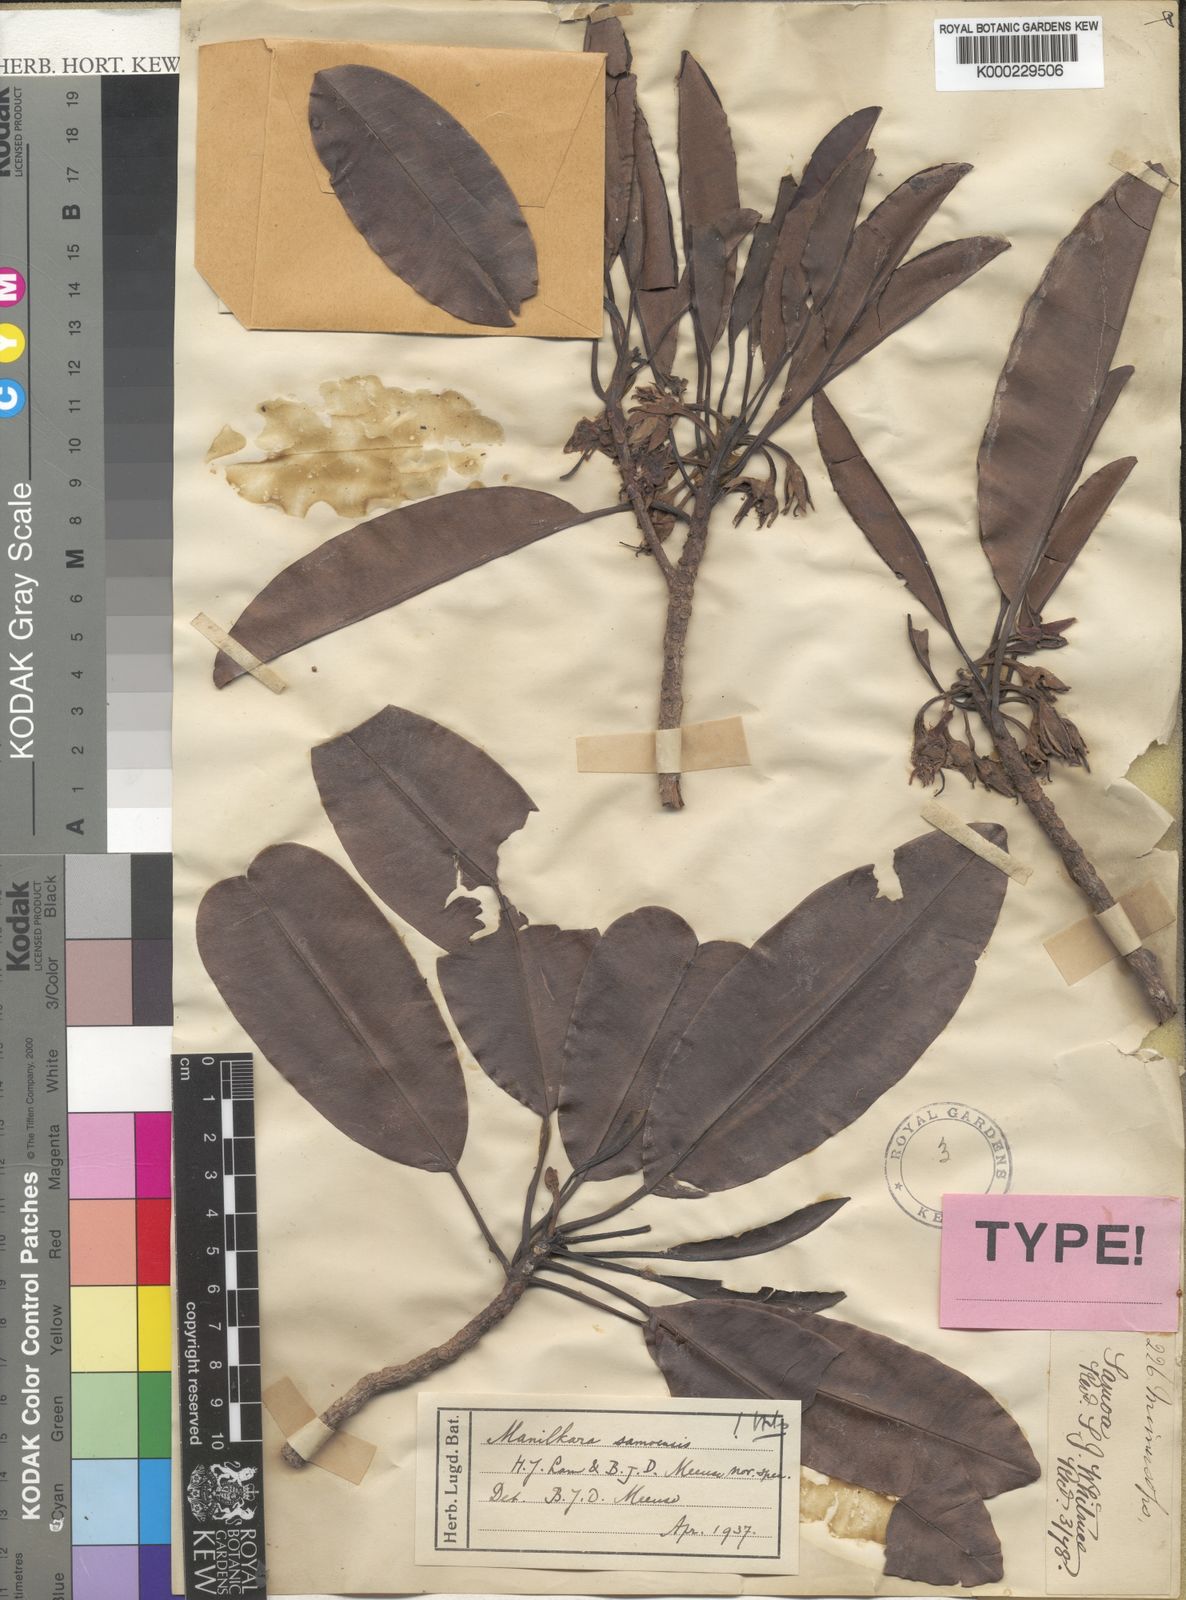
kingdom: Plantae
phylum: Tracheophyta
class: Magnoliopsida
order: Ericales
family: Sapotaceae
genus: Manilkara
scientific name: Manilkara samoensis
